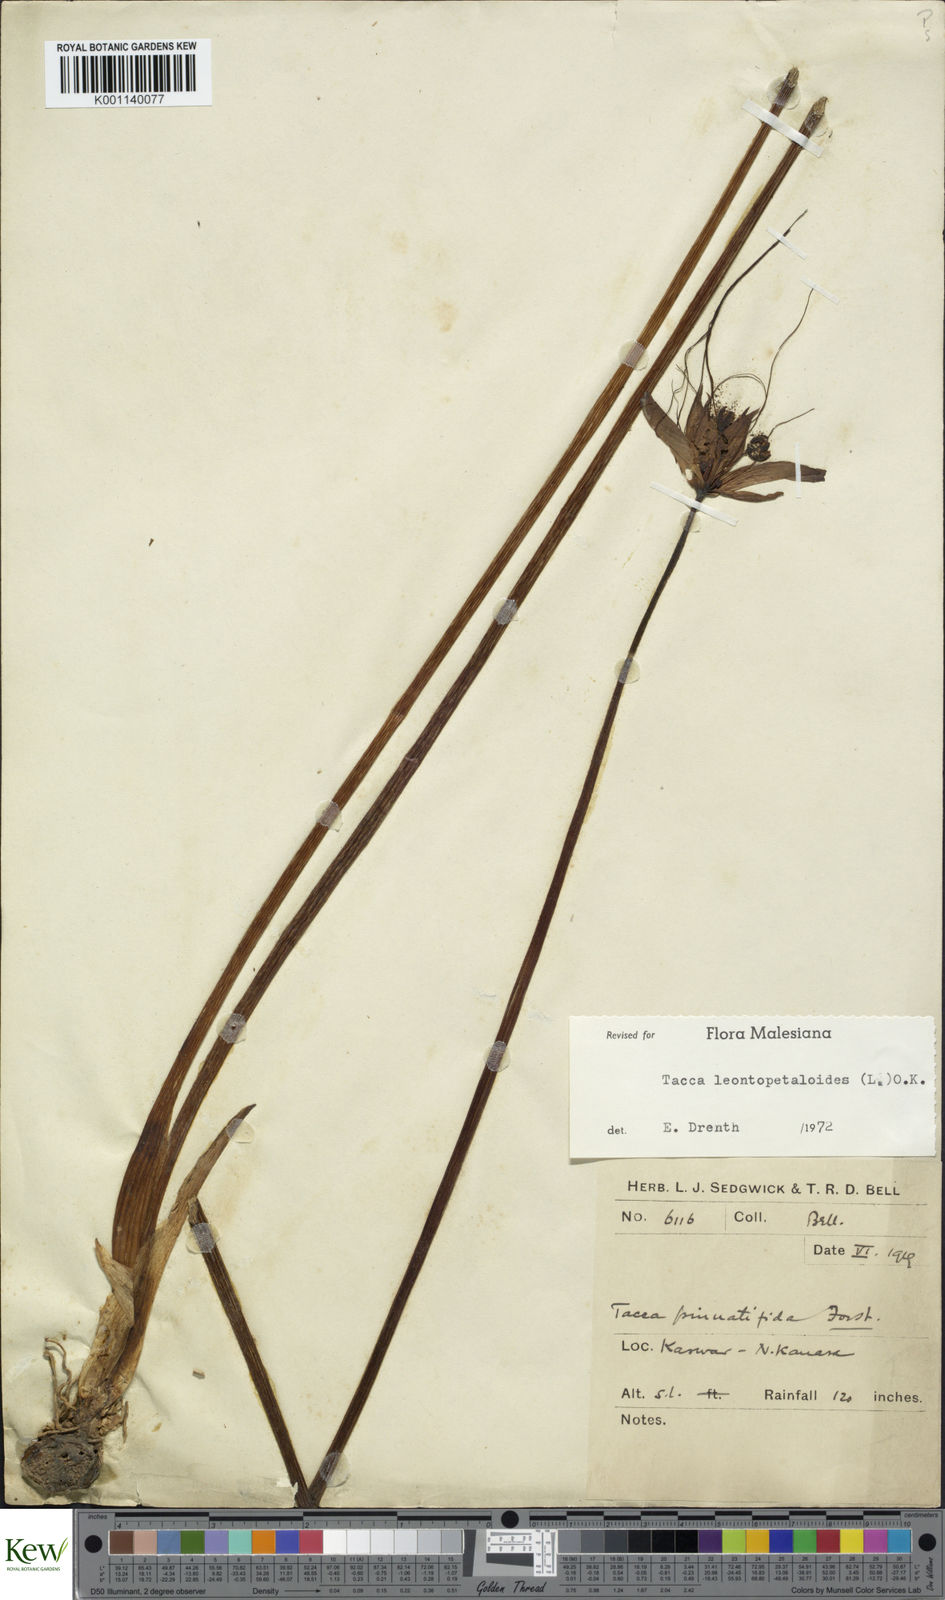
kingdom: Plantae
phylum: Tracheophyta
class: Liliopsida
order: Dioscoreales
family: Dioscoreaceae
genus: Tacca
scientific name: Tacca leontopetaloides
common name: Arrowroot
